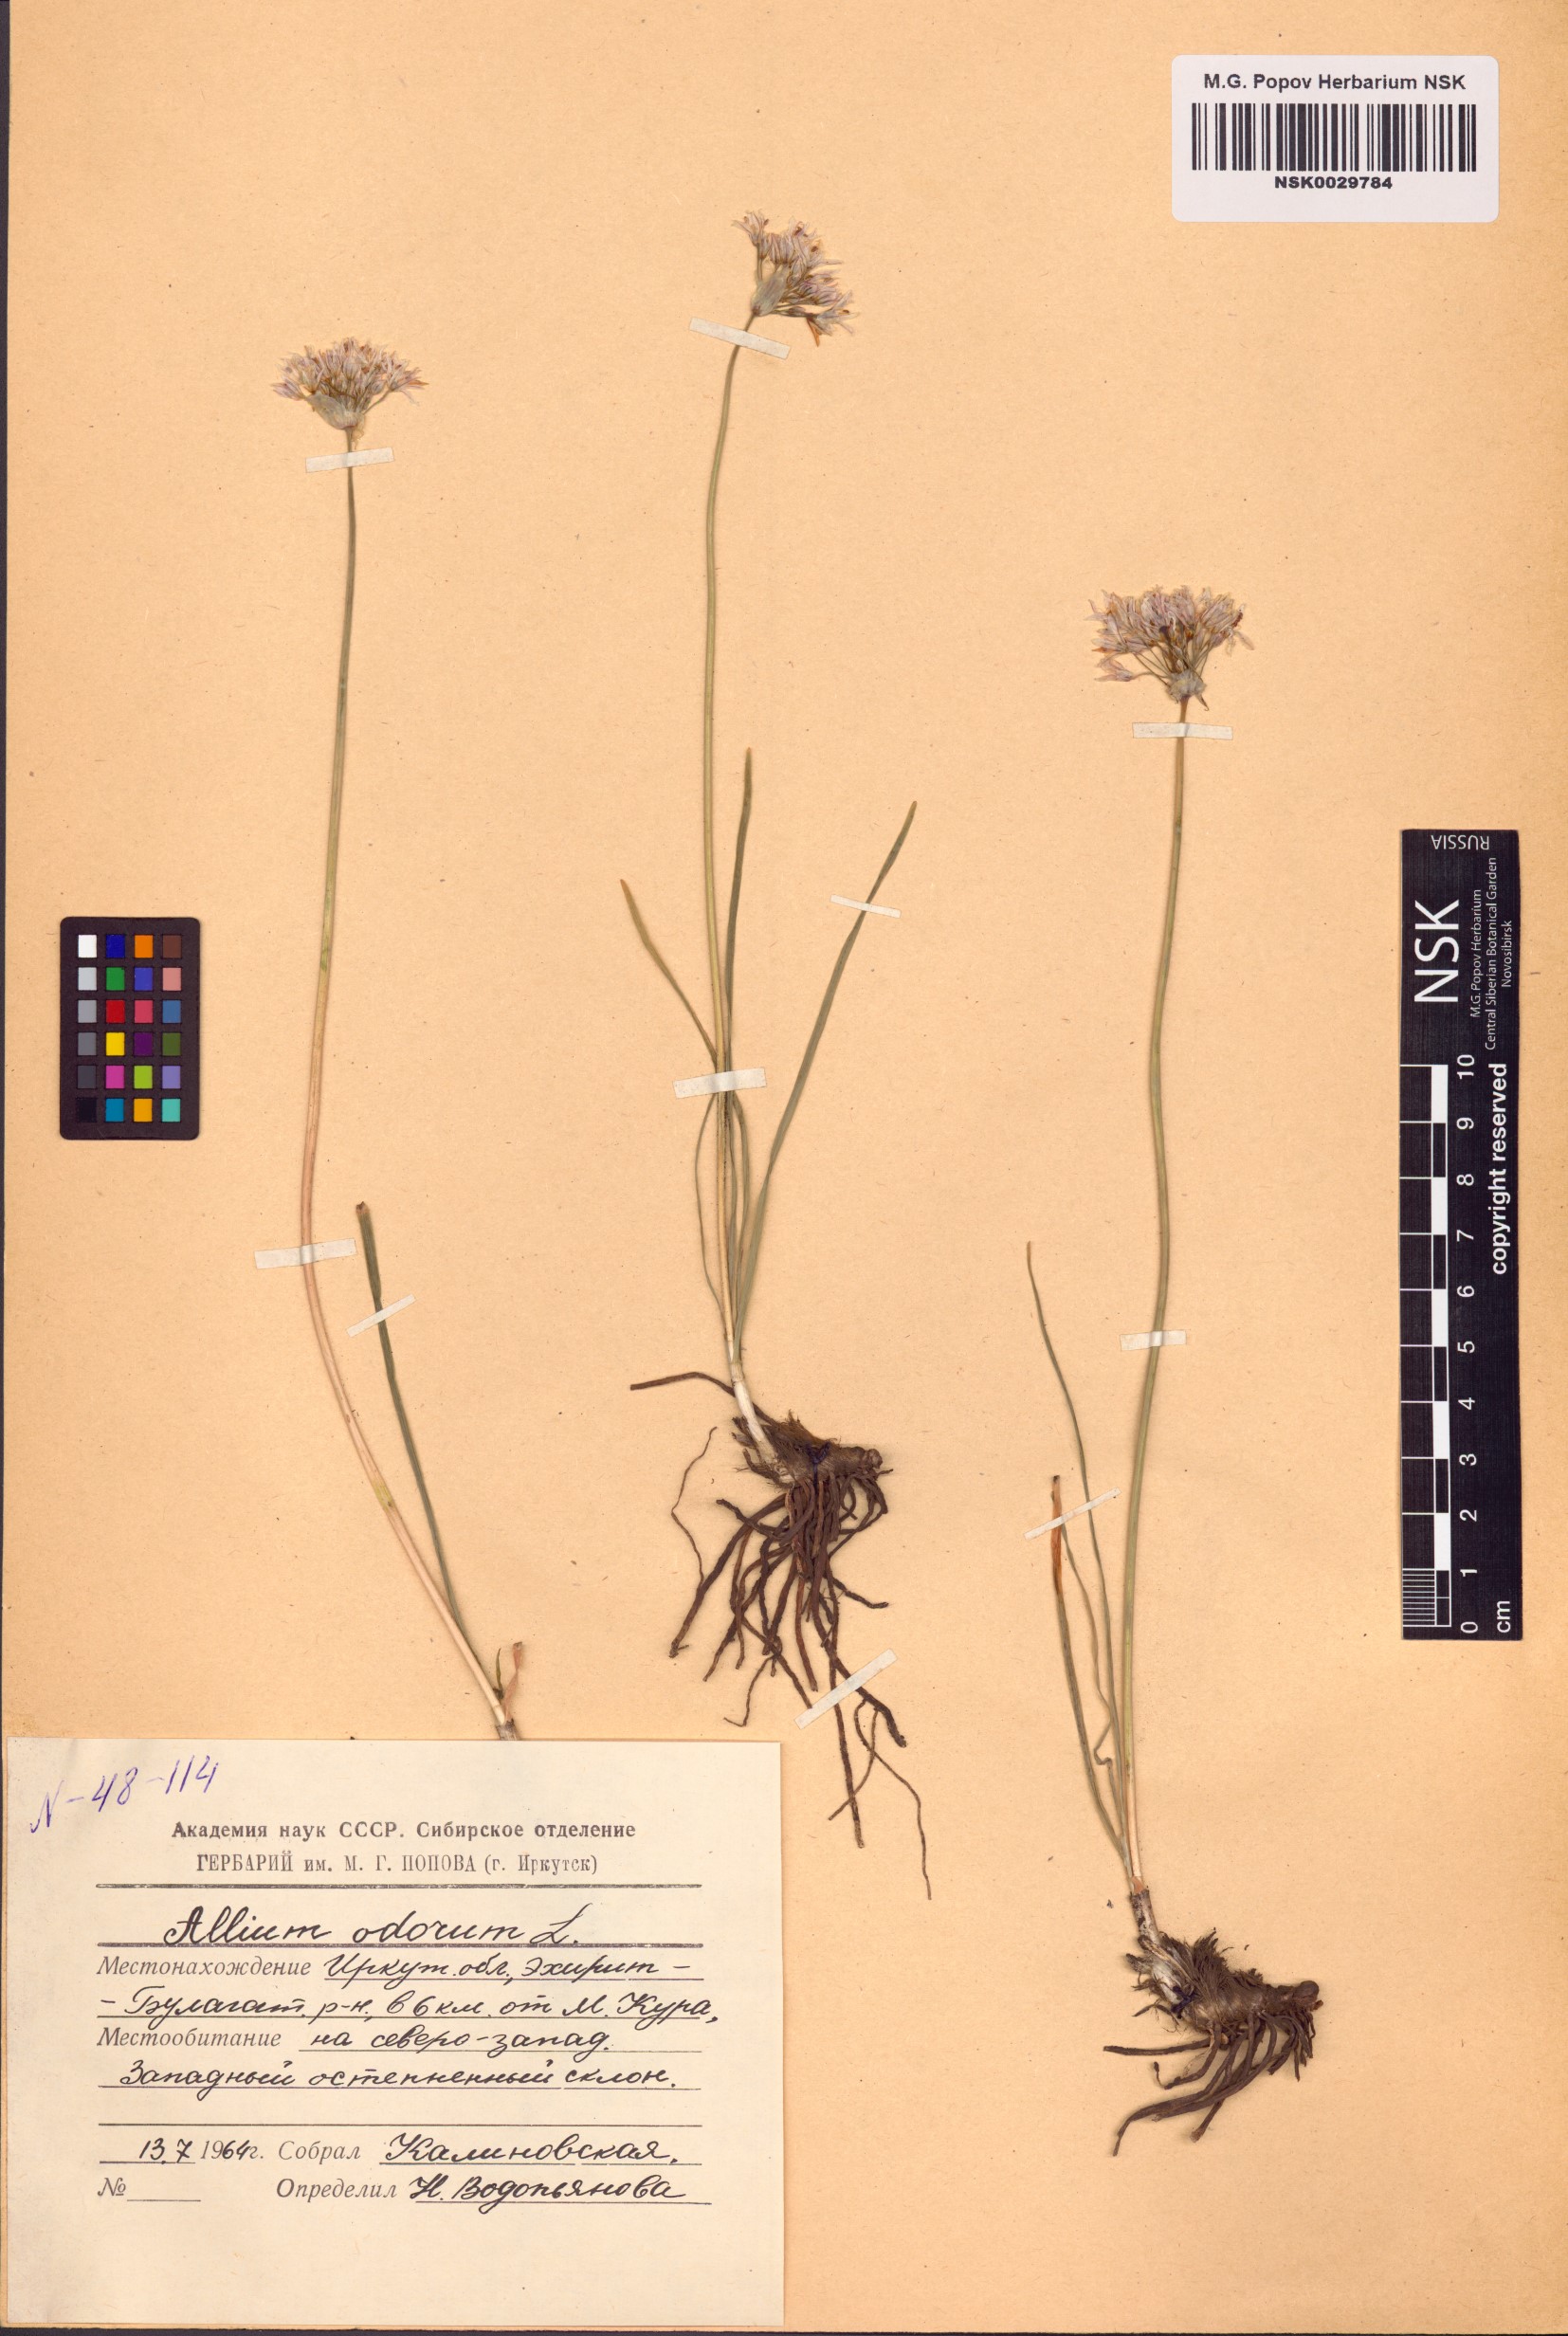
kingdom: Plantae
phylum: Tracheophyta
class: Liliopsida
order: Asparagales
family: Amaryllidaceae
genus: Allium
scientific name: Allium ramosum
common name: Fragrant garlic
